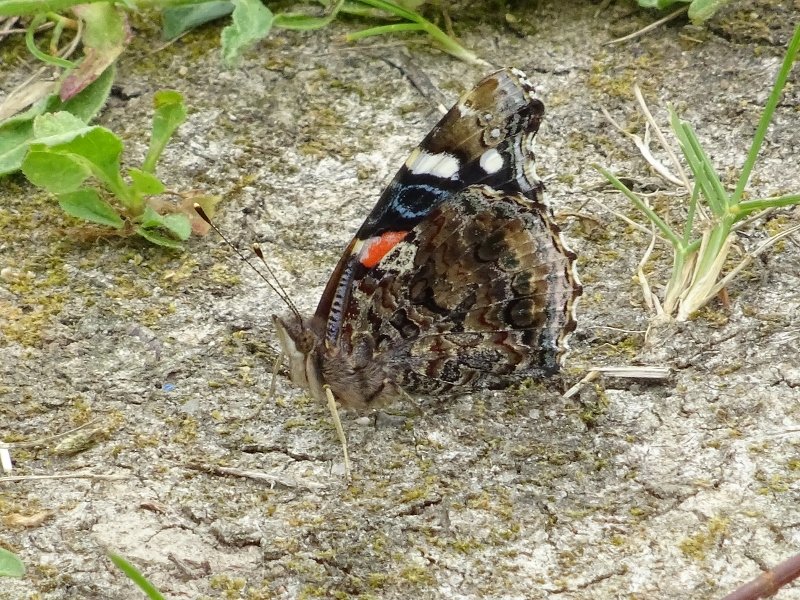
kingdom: Animalia
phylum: Arthropoda
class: Insecta
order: Lepidoptera
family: Nymphalidae
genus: Vanessa
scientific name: Vanessa atalanta
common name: Red Admiral
